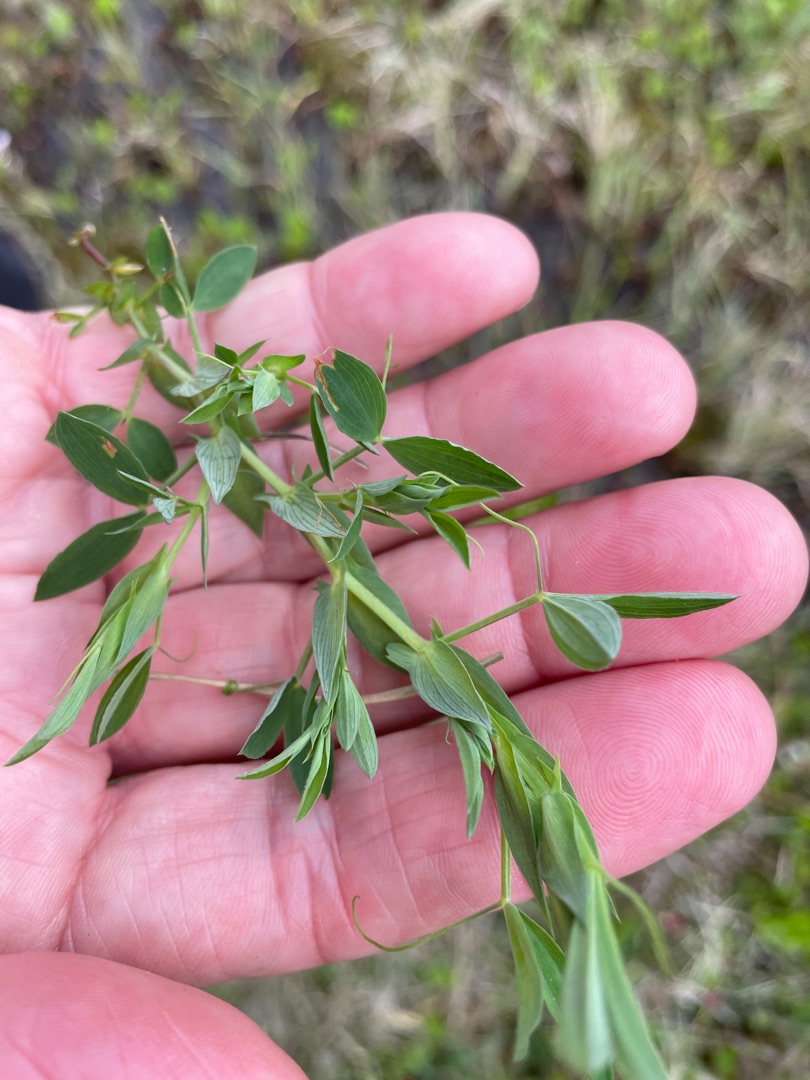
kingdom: Plantae
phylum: Tracheophyta
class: Magnoliopsida
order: Fabales
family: Fabaceae
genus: Lathyrus
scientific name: Lathyrus pratensis
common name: Gul fladbælg
